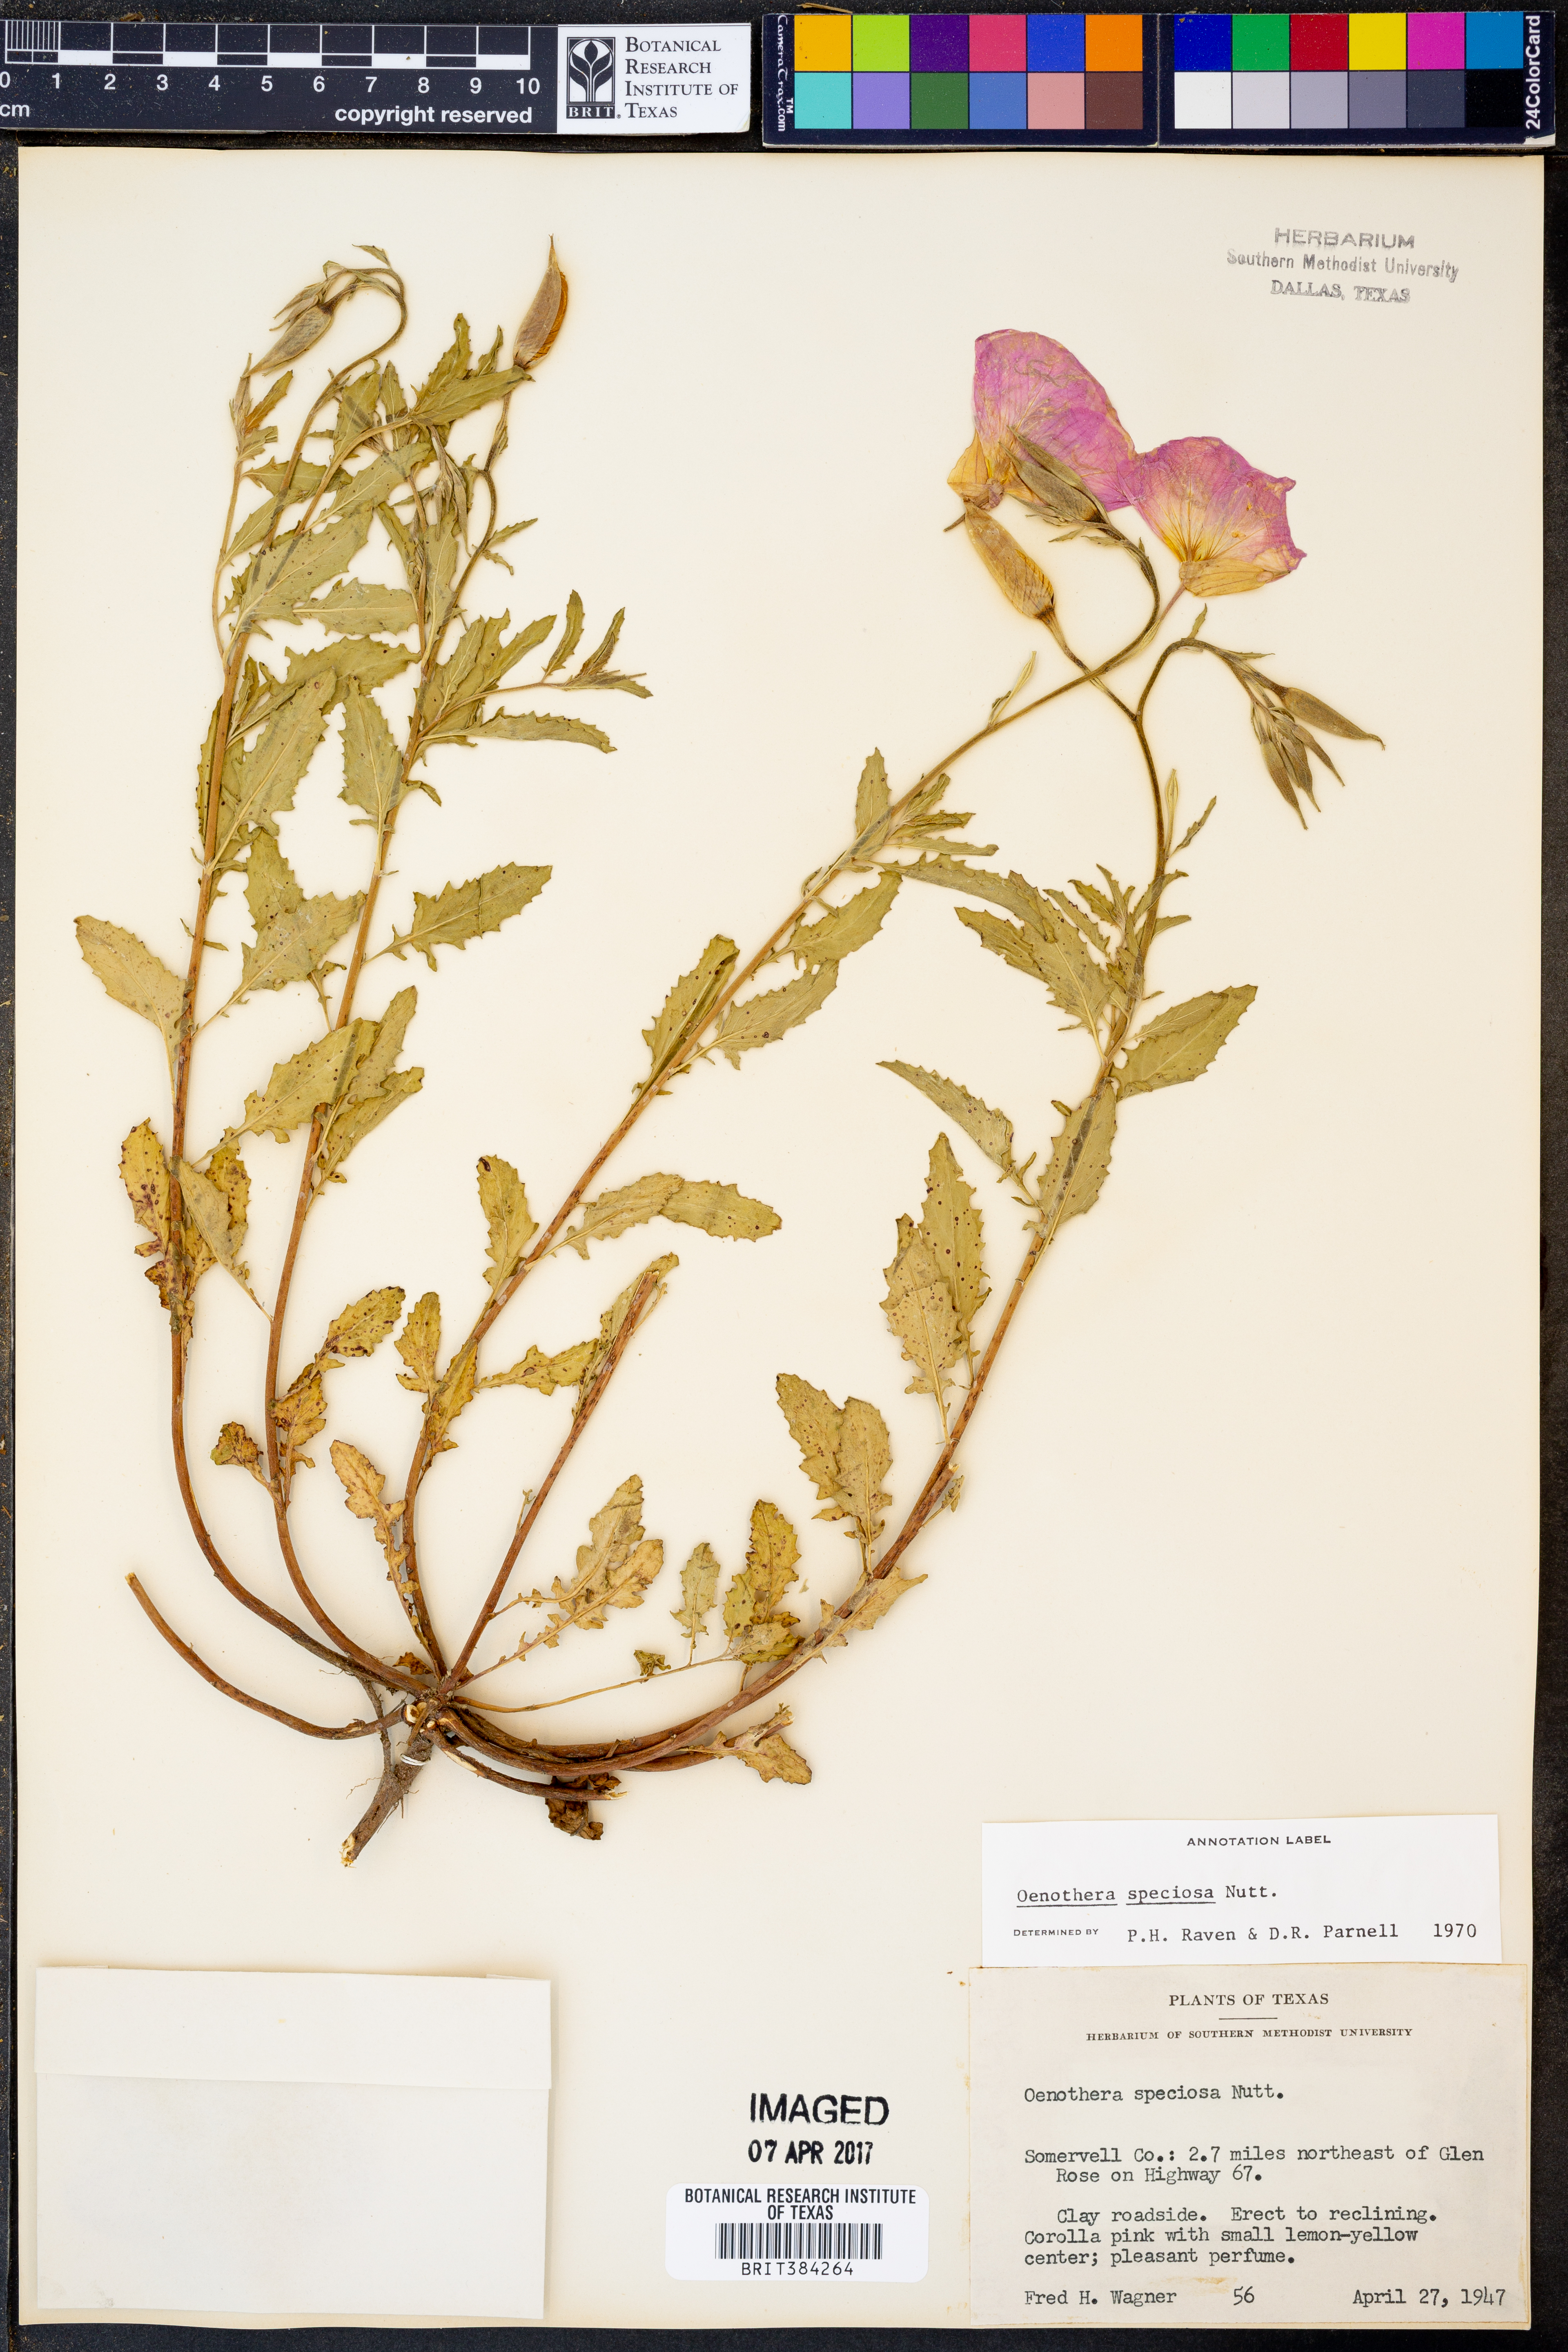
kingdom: Plantae
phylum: Tracheophyta
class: Magnoliopsida
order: Myrtales
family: Onagraceae
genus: Oenothera
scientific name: Oenothera speciosa
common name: White evening-primrose
